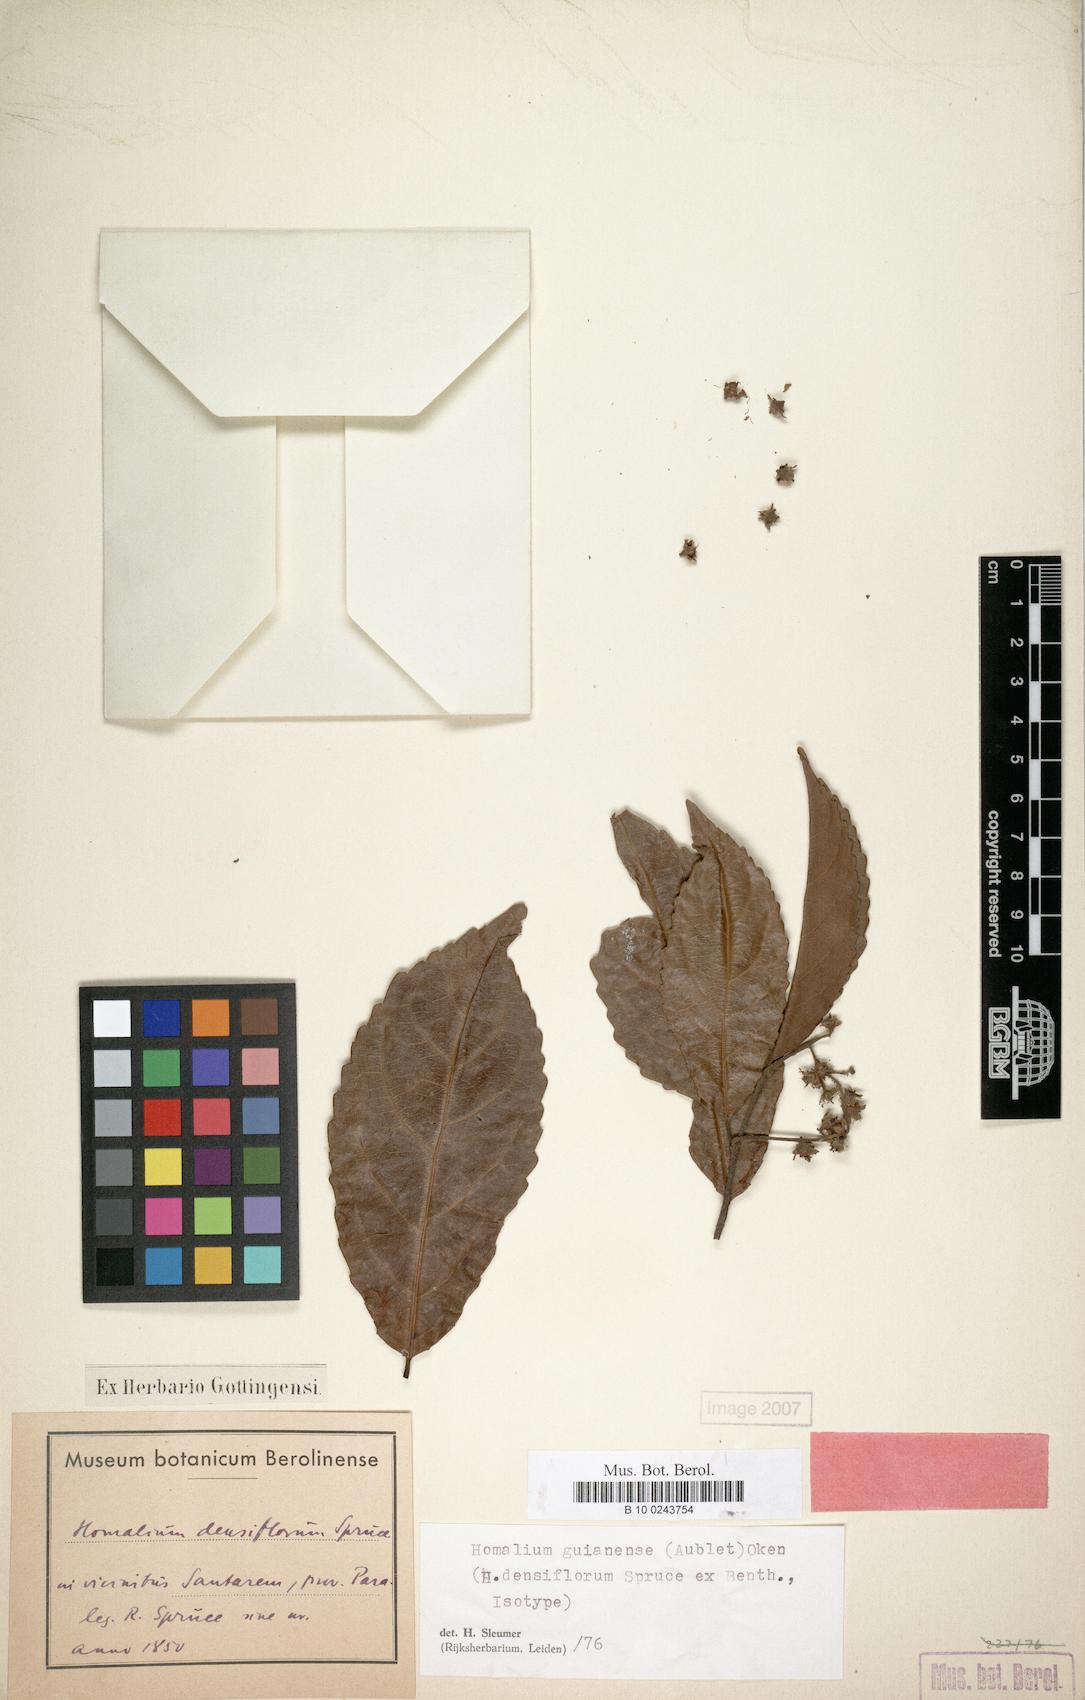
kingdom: Plantae
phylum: Tracheophyta
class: Magnoliopsida
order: Malpighiales
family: Salicaceae
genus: Homalium
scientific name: Homalium guianense
